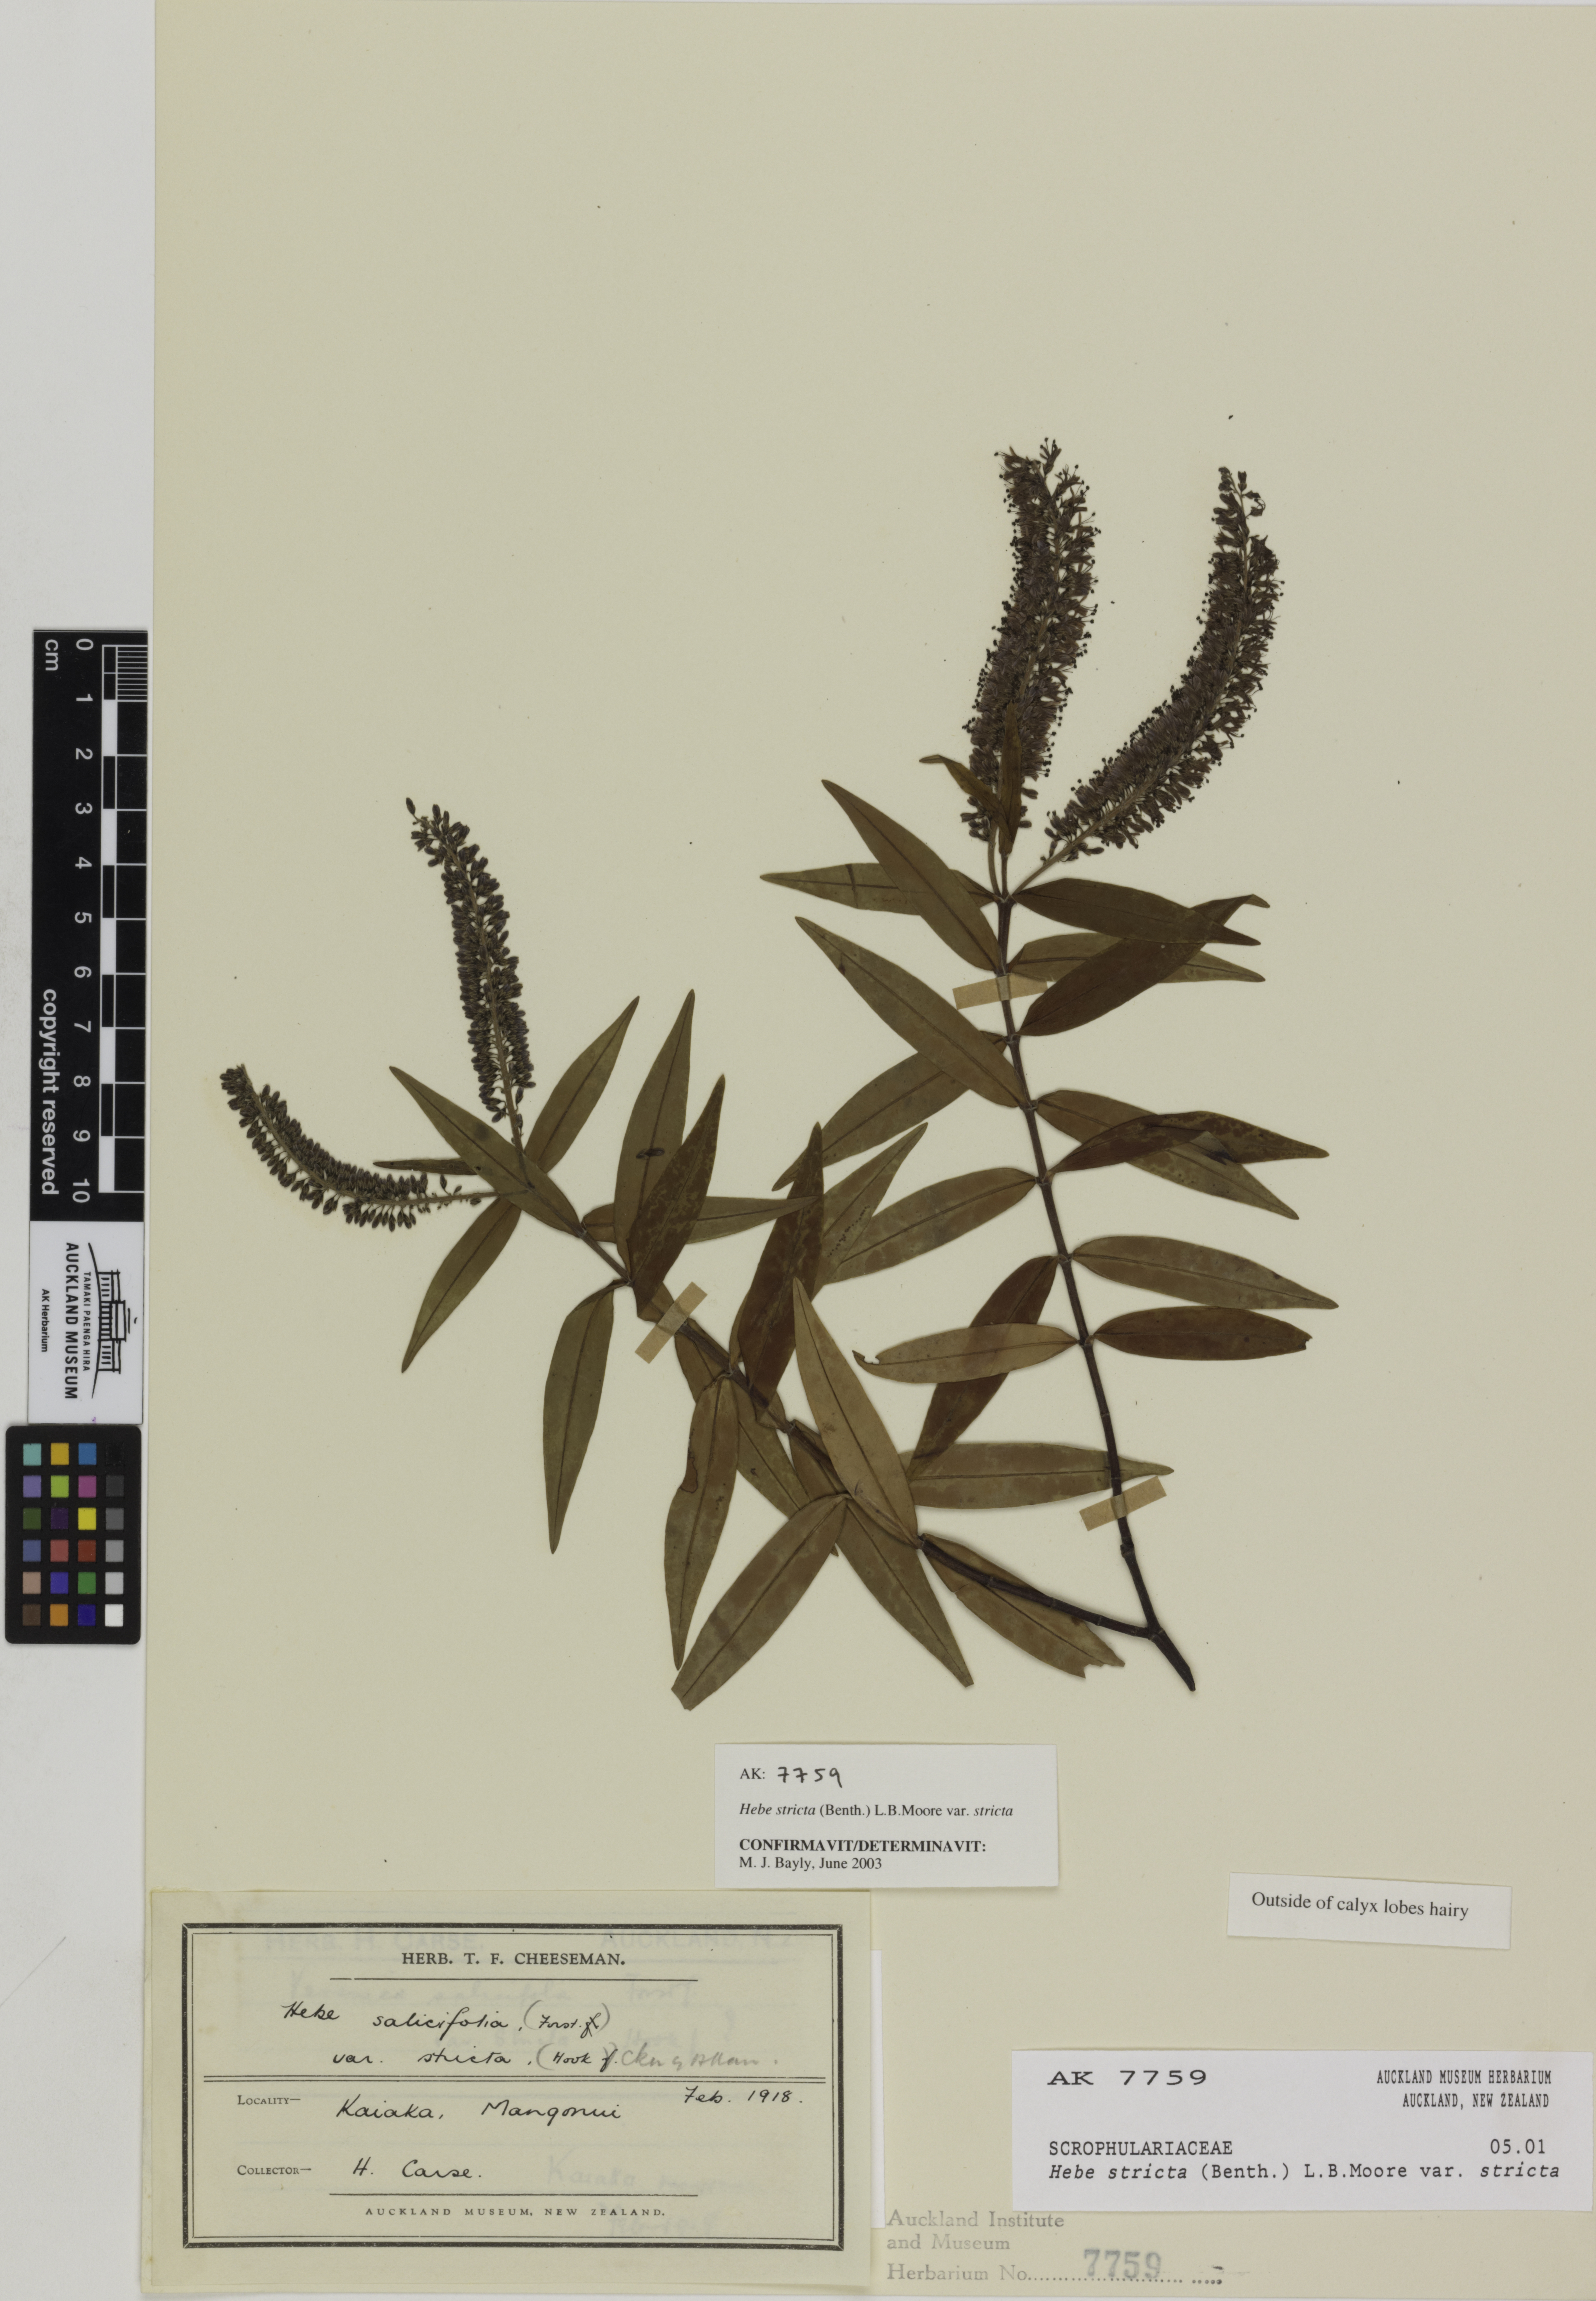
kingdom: Plantae
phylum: Tracheophyta
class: Magnoliopsida
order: Lamiales
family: Plantaginaceae
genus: Veronica
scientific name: Veronica stricta
